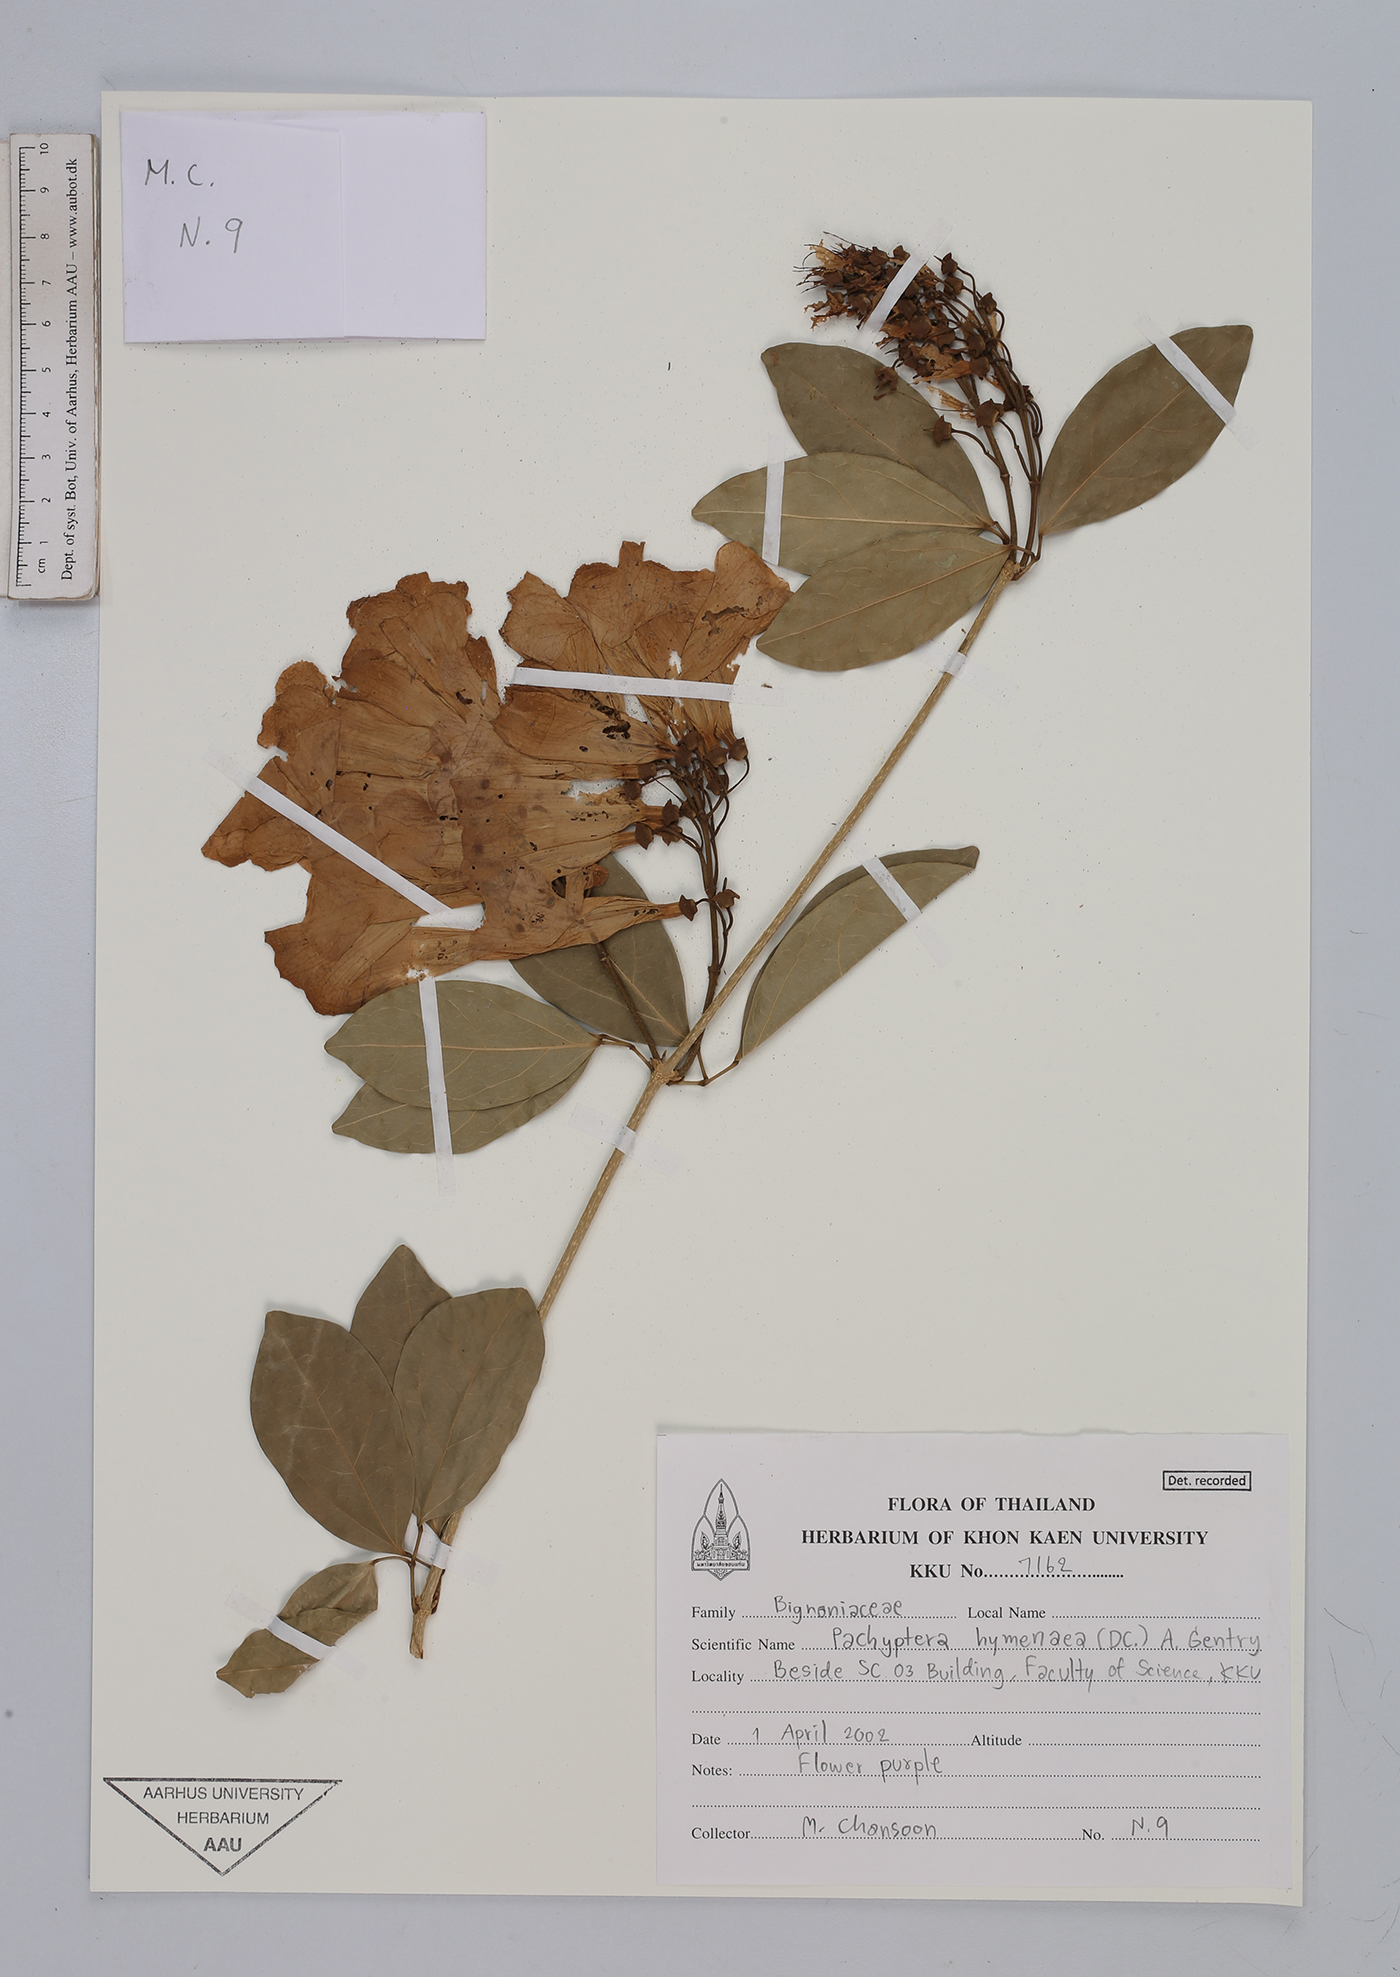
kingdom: Plantae
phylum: Tracheophyta
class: Magnoliopsida
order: Lamiales
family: Bignoniaceae
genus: Mansoa
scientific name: Mansoa hymenaea
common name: Membranous garlic vine
